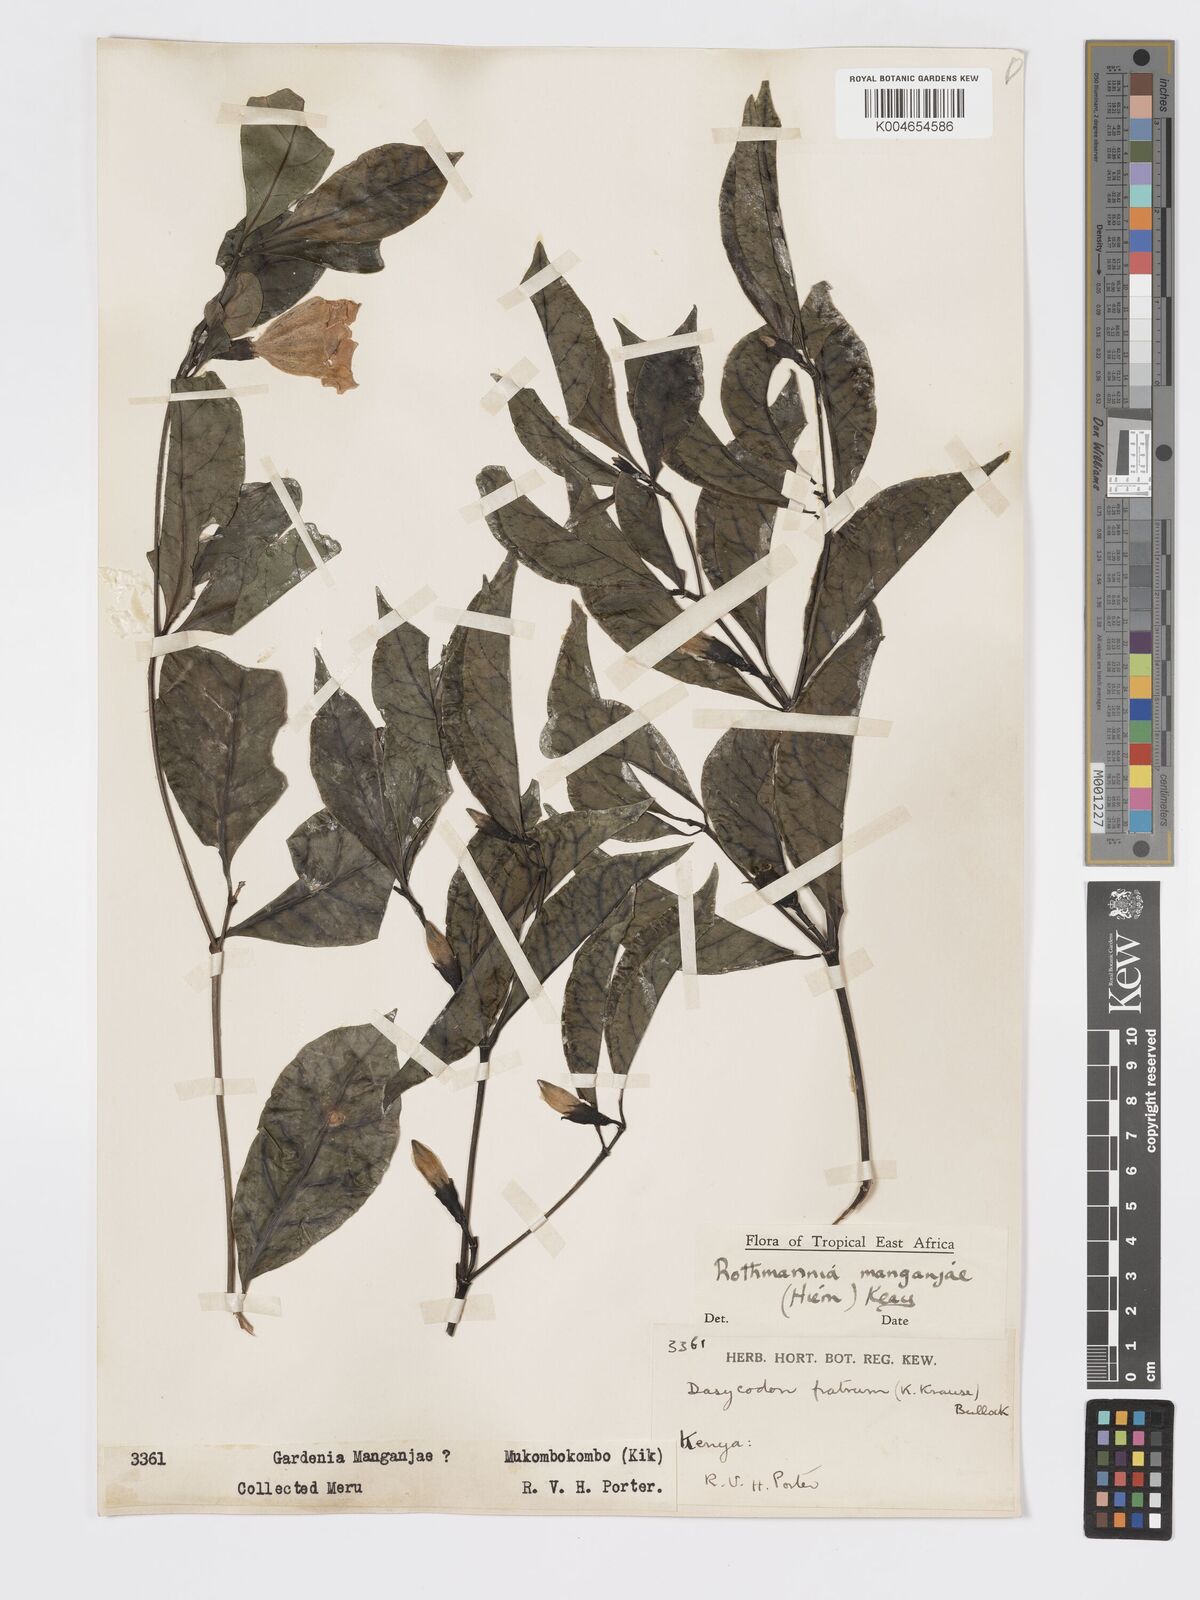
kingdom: Plantae
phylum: Tracheophyta
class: Magnoliopsida
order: Gentianales
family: Rubiaceae
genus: Rothmannia
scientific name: Rothmannia manganjae
